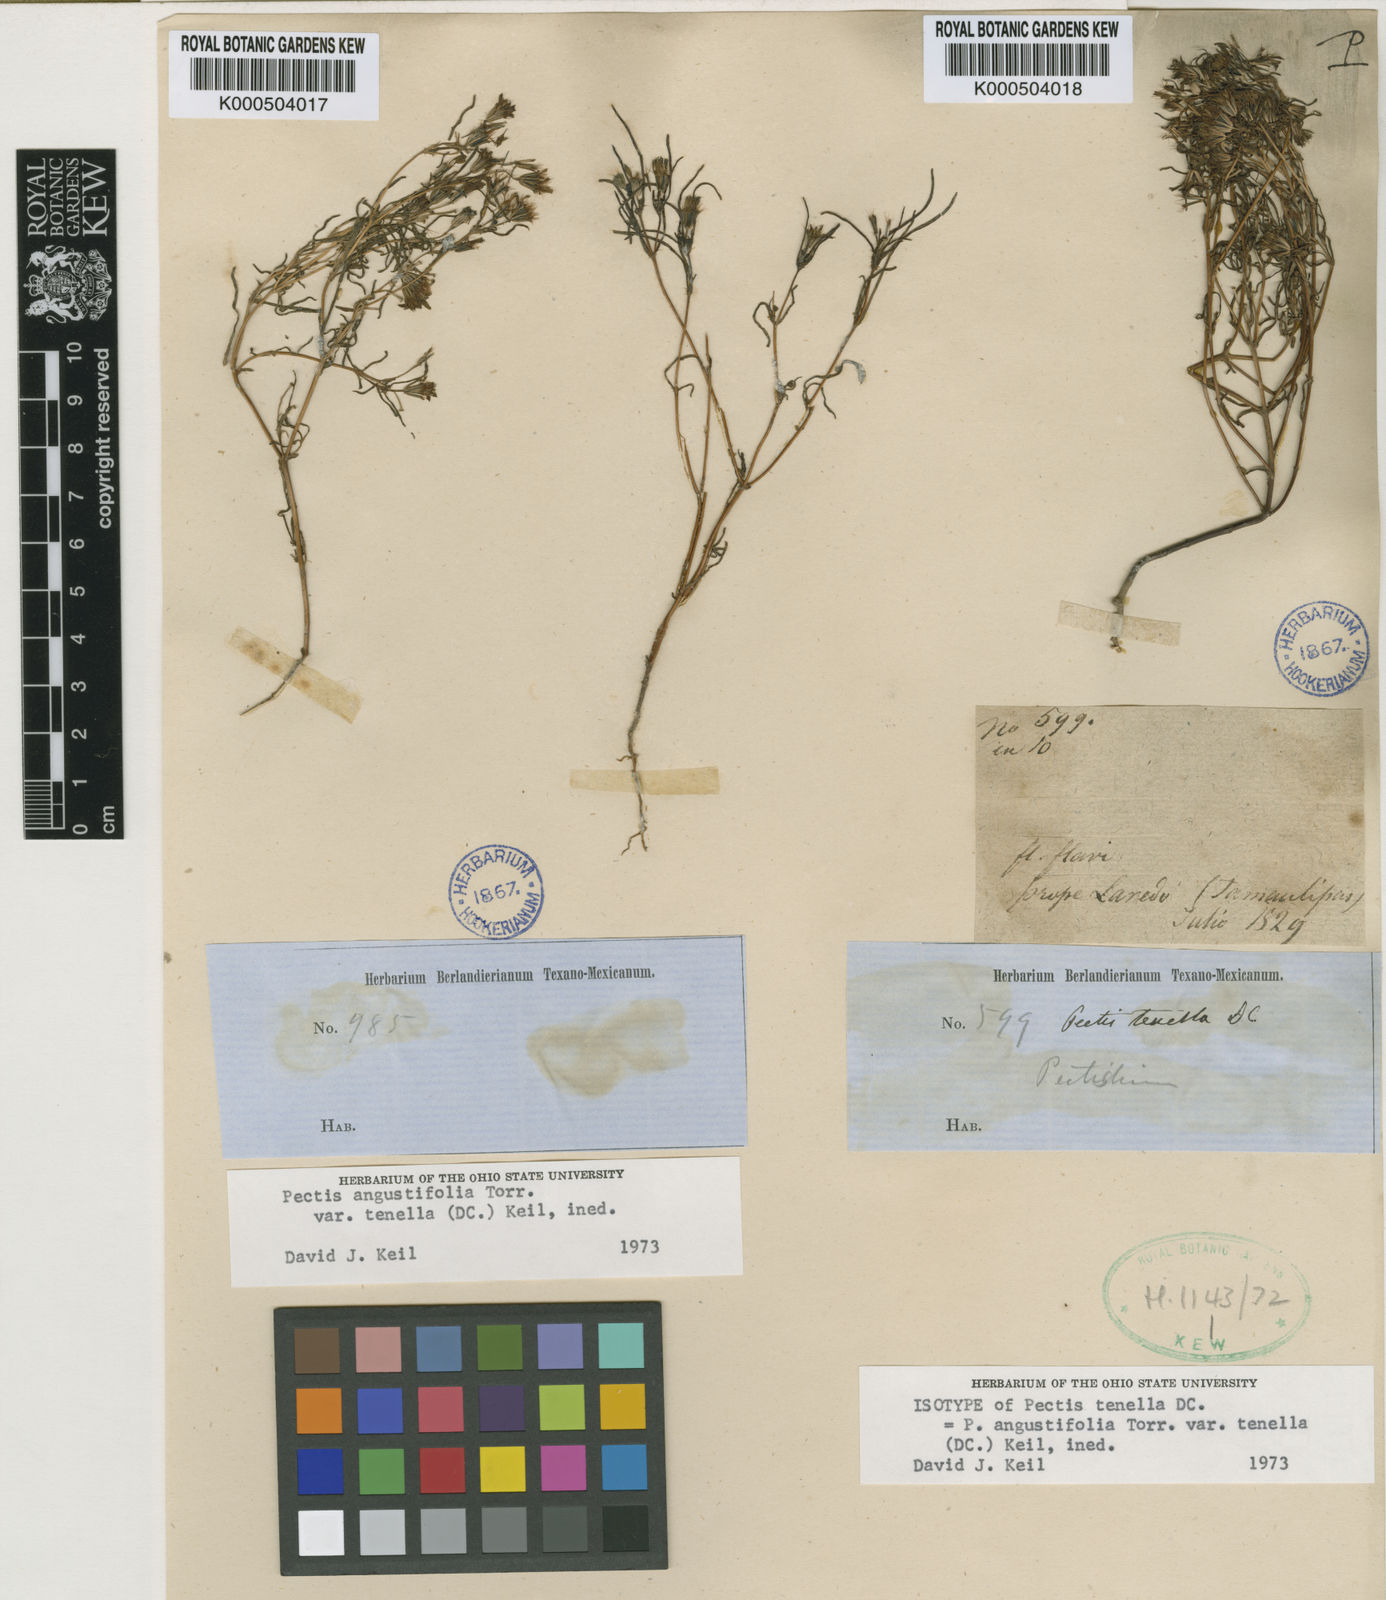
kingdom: Plantae
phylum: Tracheophyta
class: Magnoliopsida
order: Asterales
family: Asteraceae
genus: Pectis
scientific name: Pectis angustifolia
